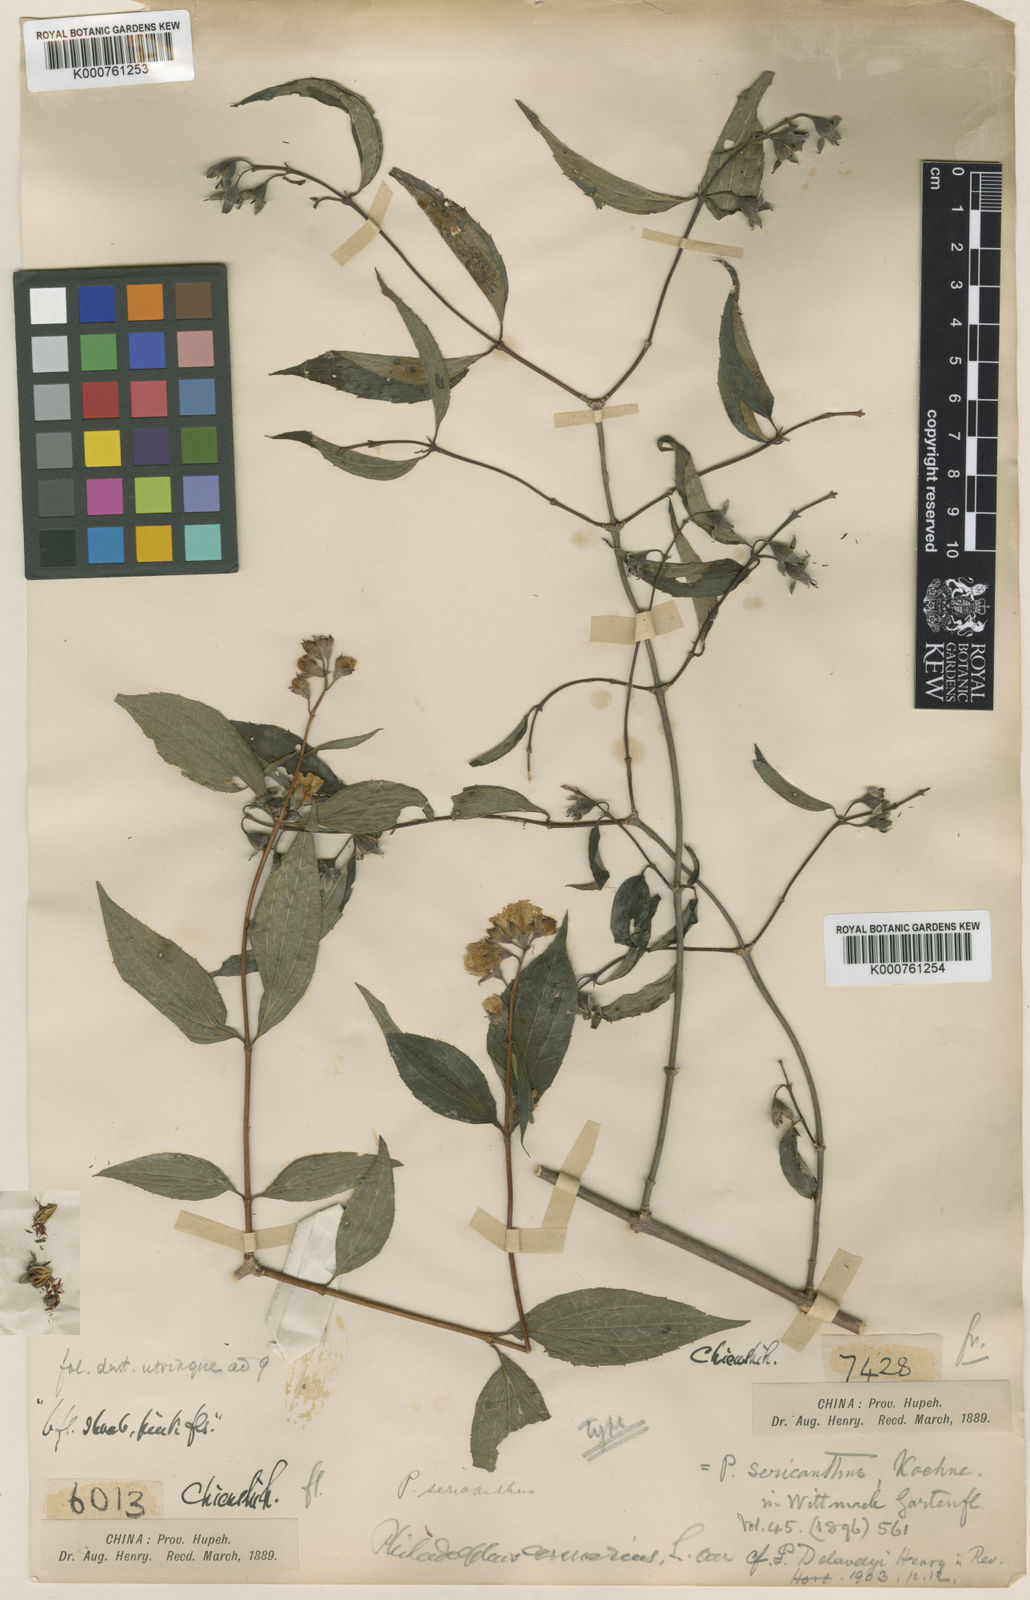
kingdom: Plantae
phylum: Tracheophyta
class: Magnoliopsida
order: Cornales
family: Hydrangeaceae
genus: Philadelphus
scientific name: Philadelphus sericanthus
